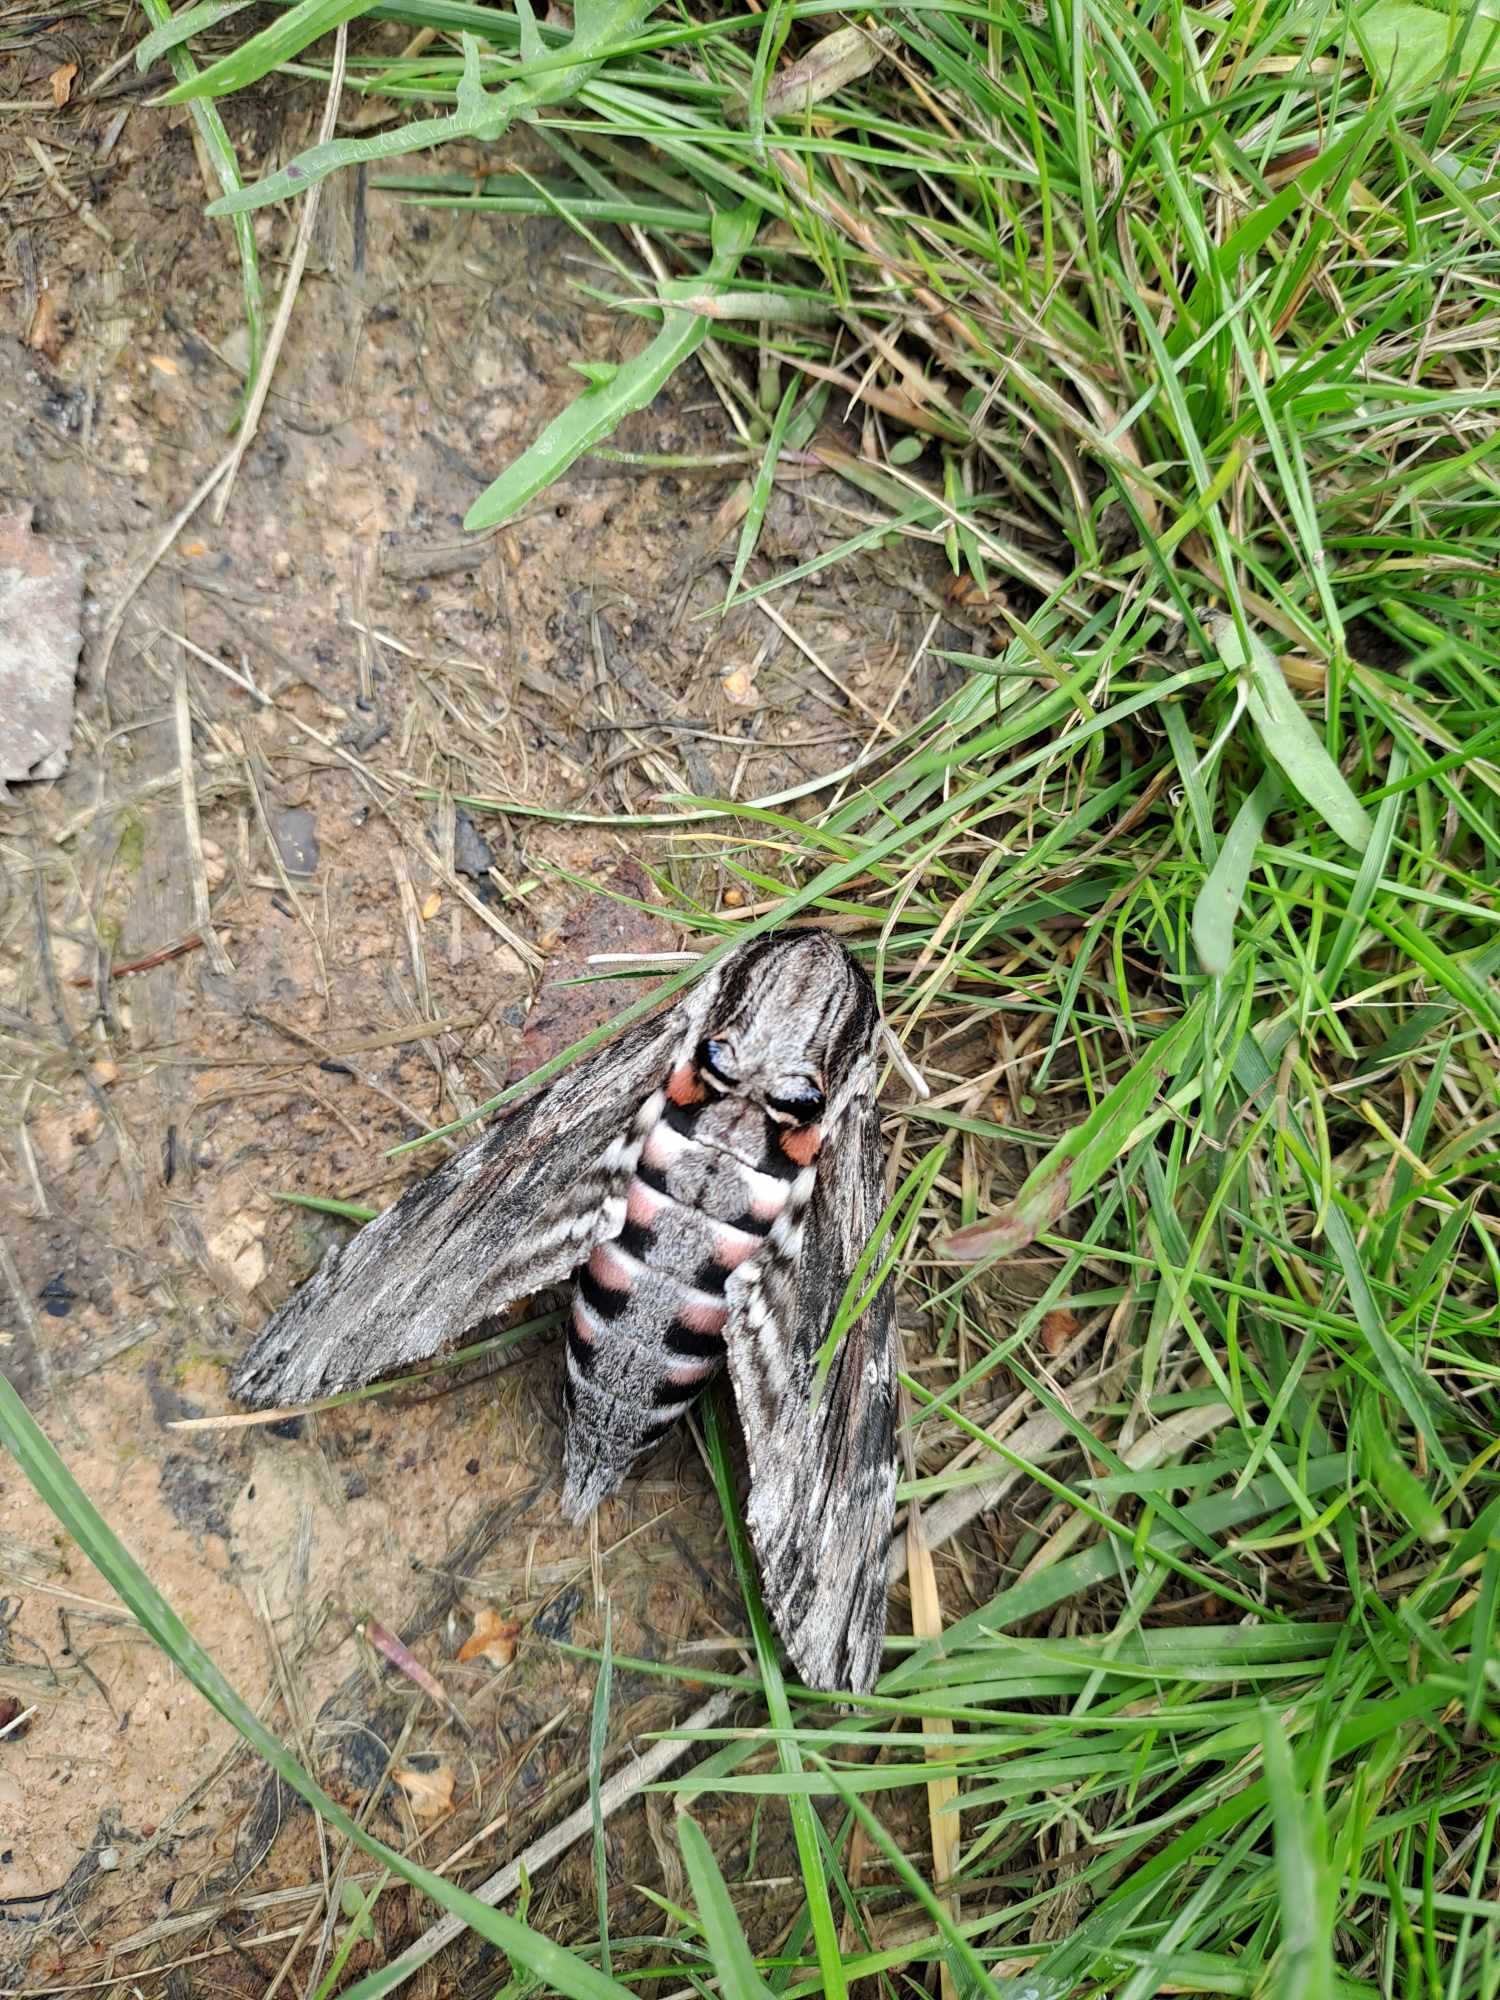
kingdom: Animalia
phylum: Arthropoda
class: Insecta
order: Lepidoptera
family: Sphingidae
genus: Agrius
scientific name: Agrius convolvuli
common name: Snerlesværmer
